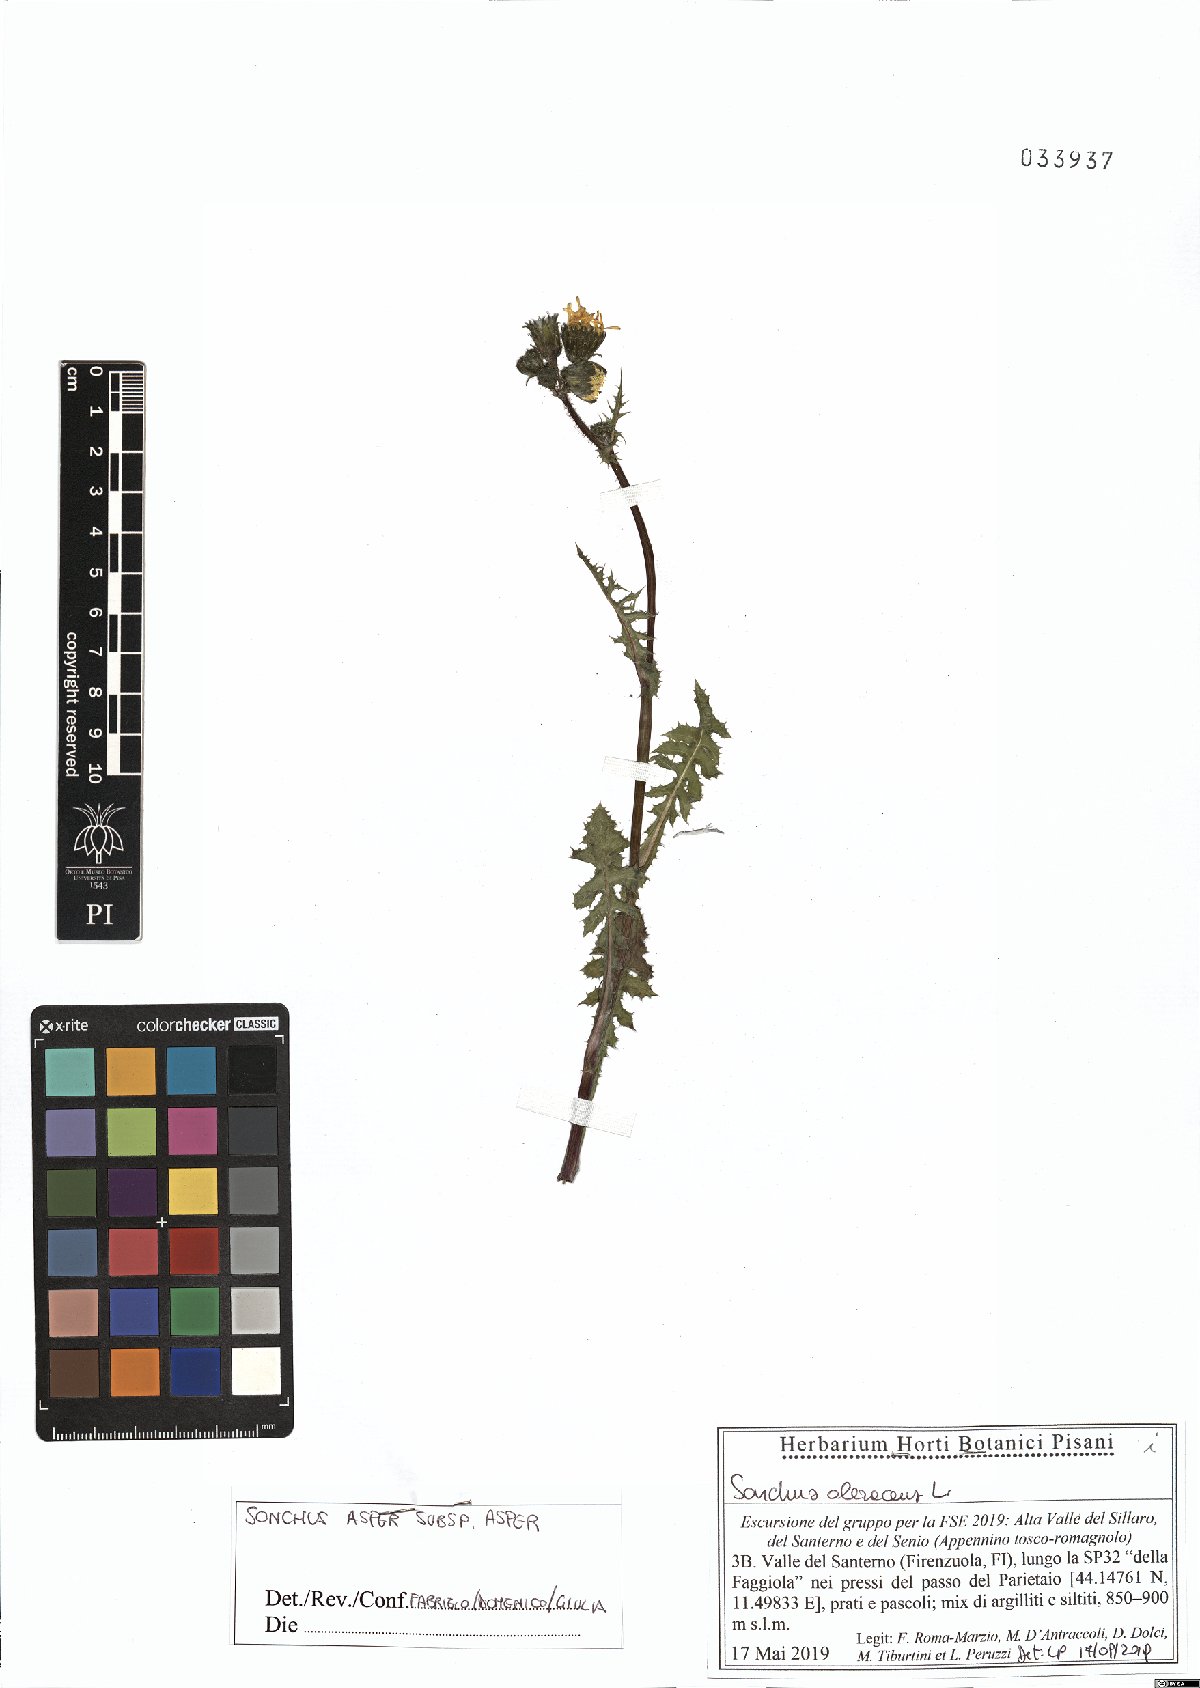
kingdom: Plantae
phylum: Tracheophyta
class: Magnoliopsida
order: Asterales
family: Asteraceae
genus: Sonchus
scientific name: Sonchus asper
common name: Prickly sow-thistle
